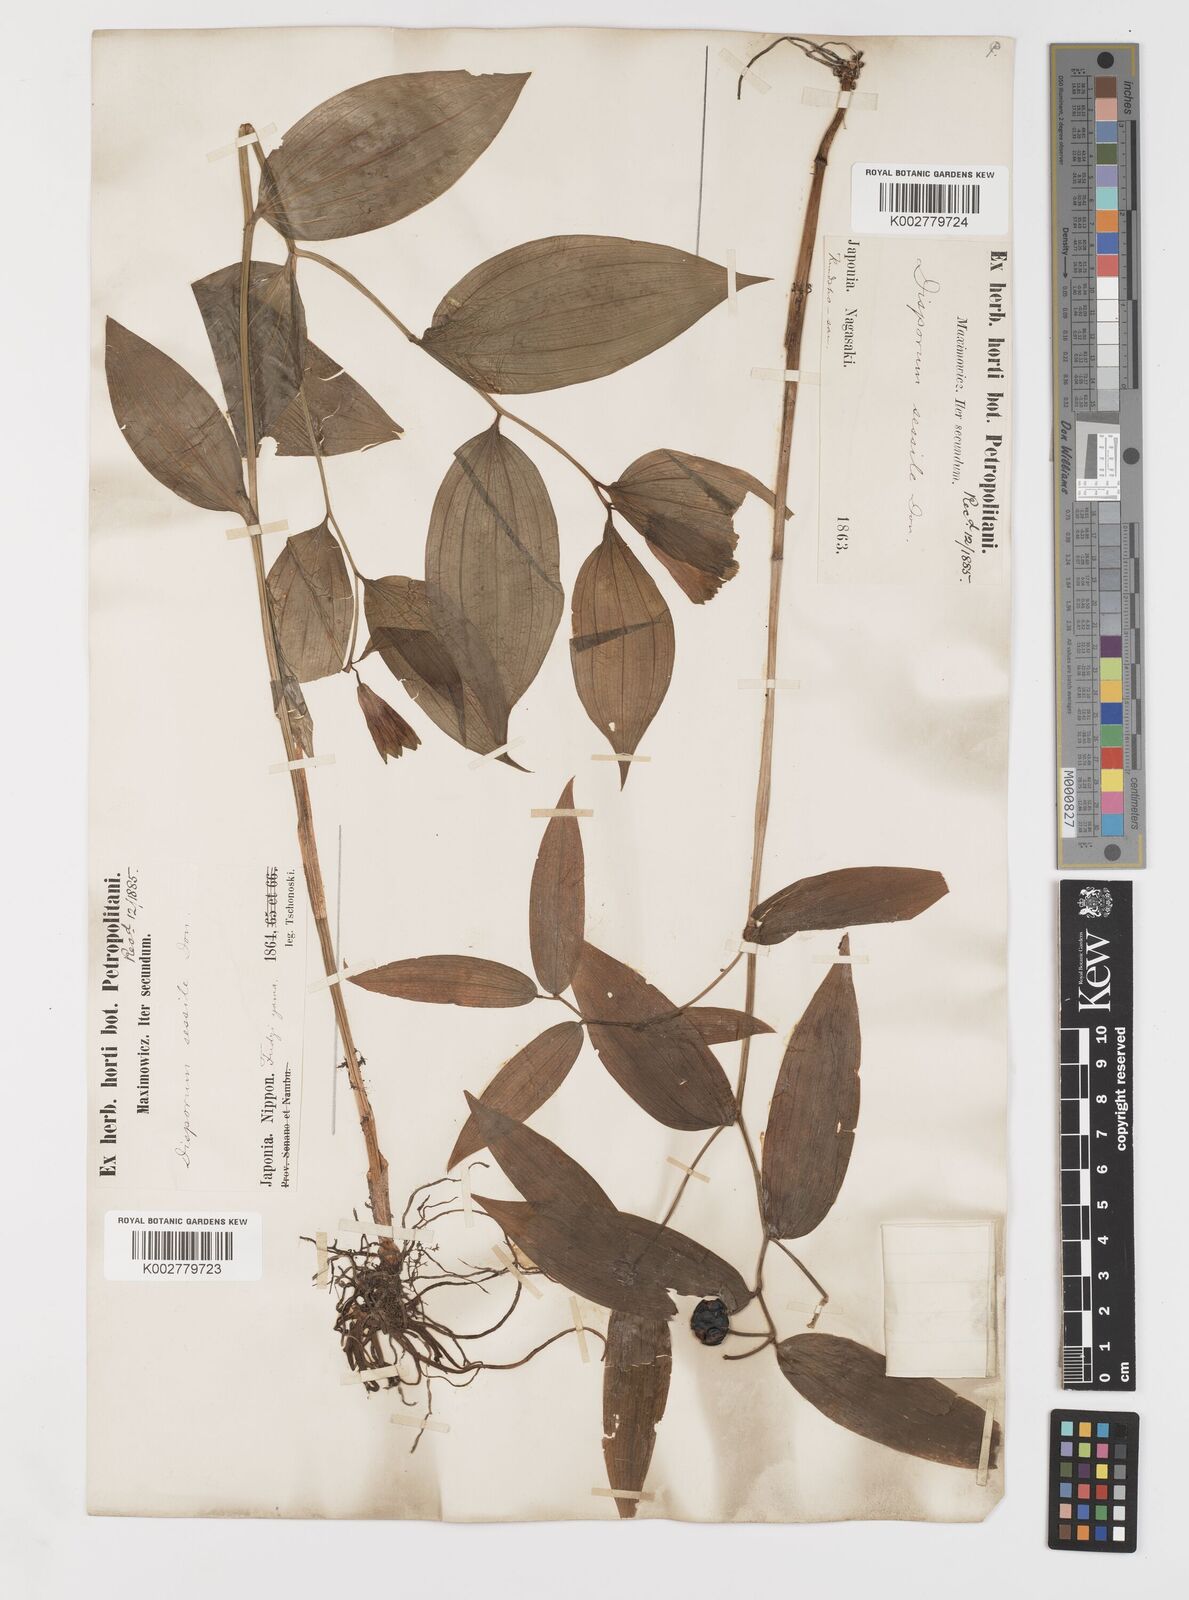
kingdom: Plantae
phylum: Tracheophyta
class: Liliopsida
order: Liliales
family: Colchicaceae
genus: Disporum
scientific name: Disporum sessile
